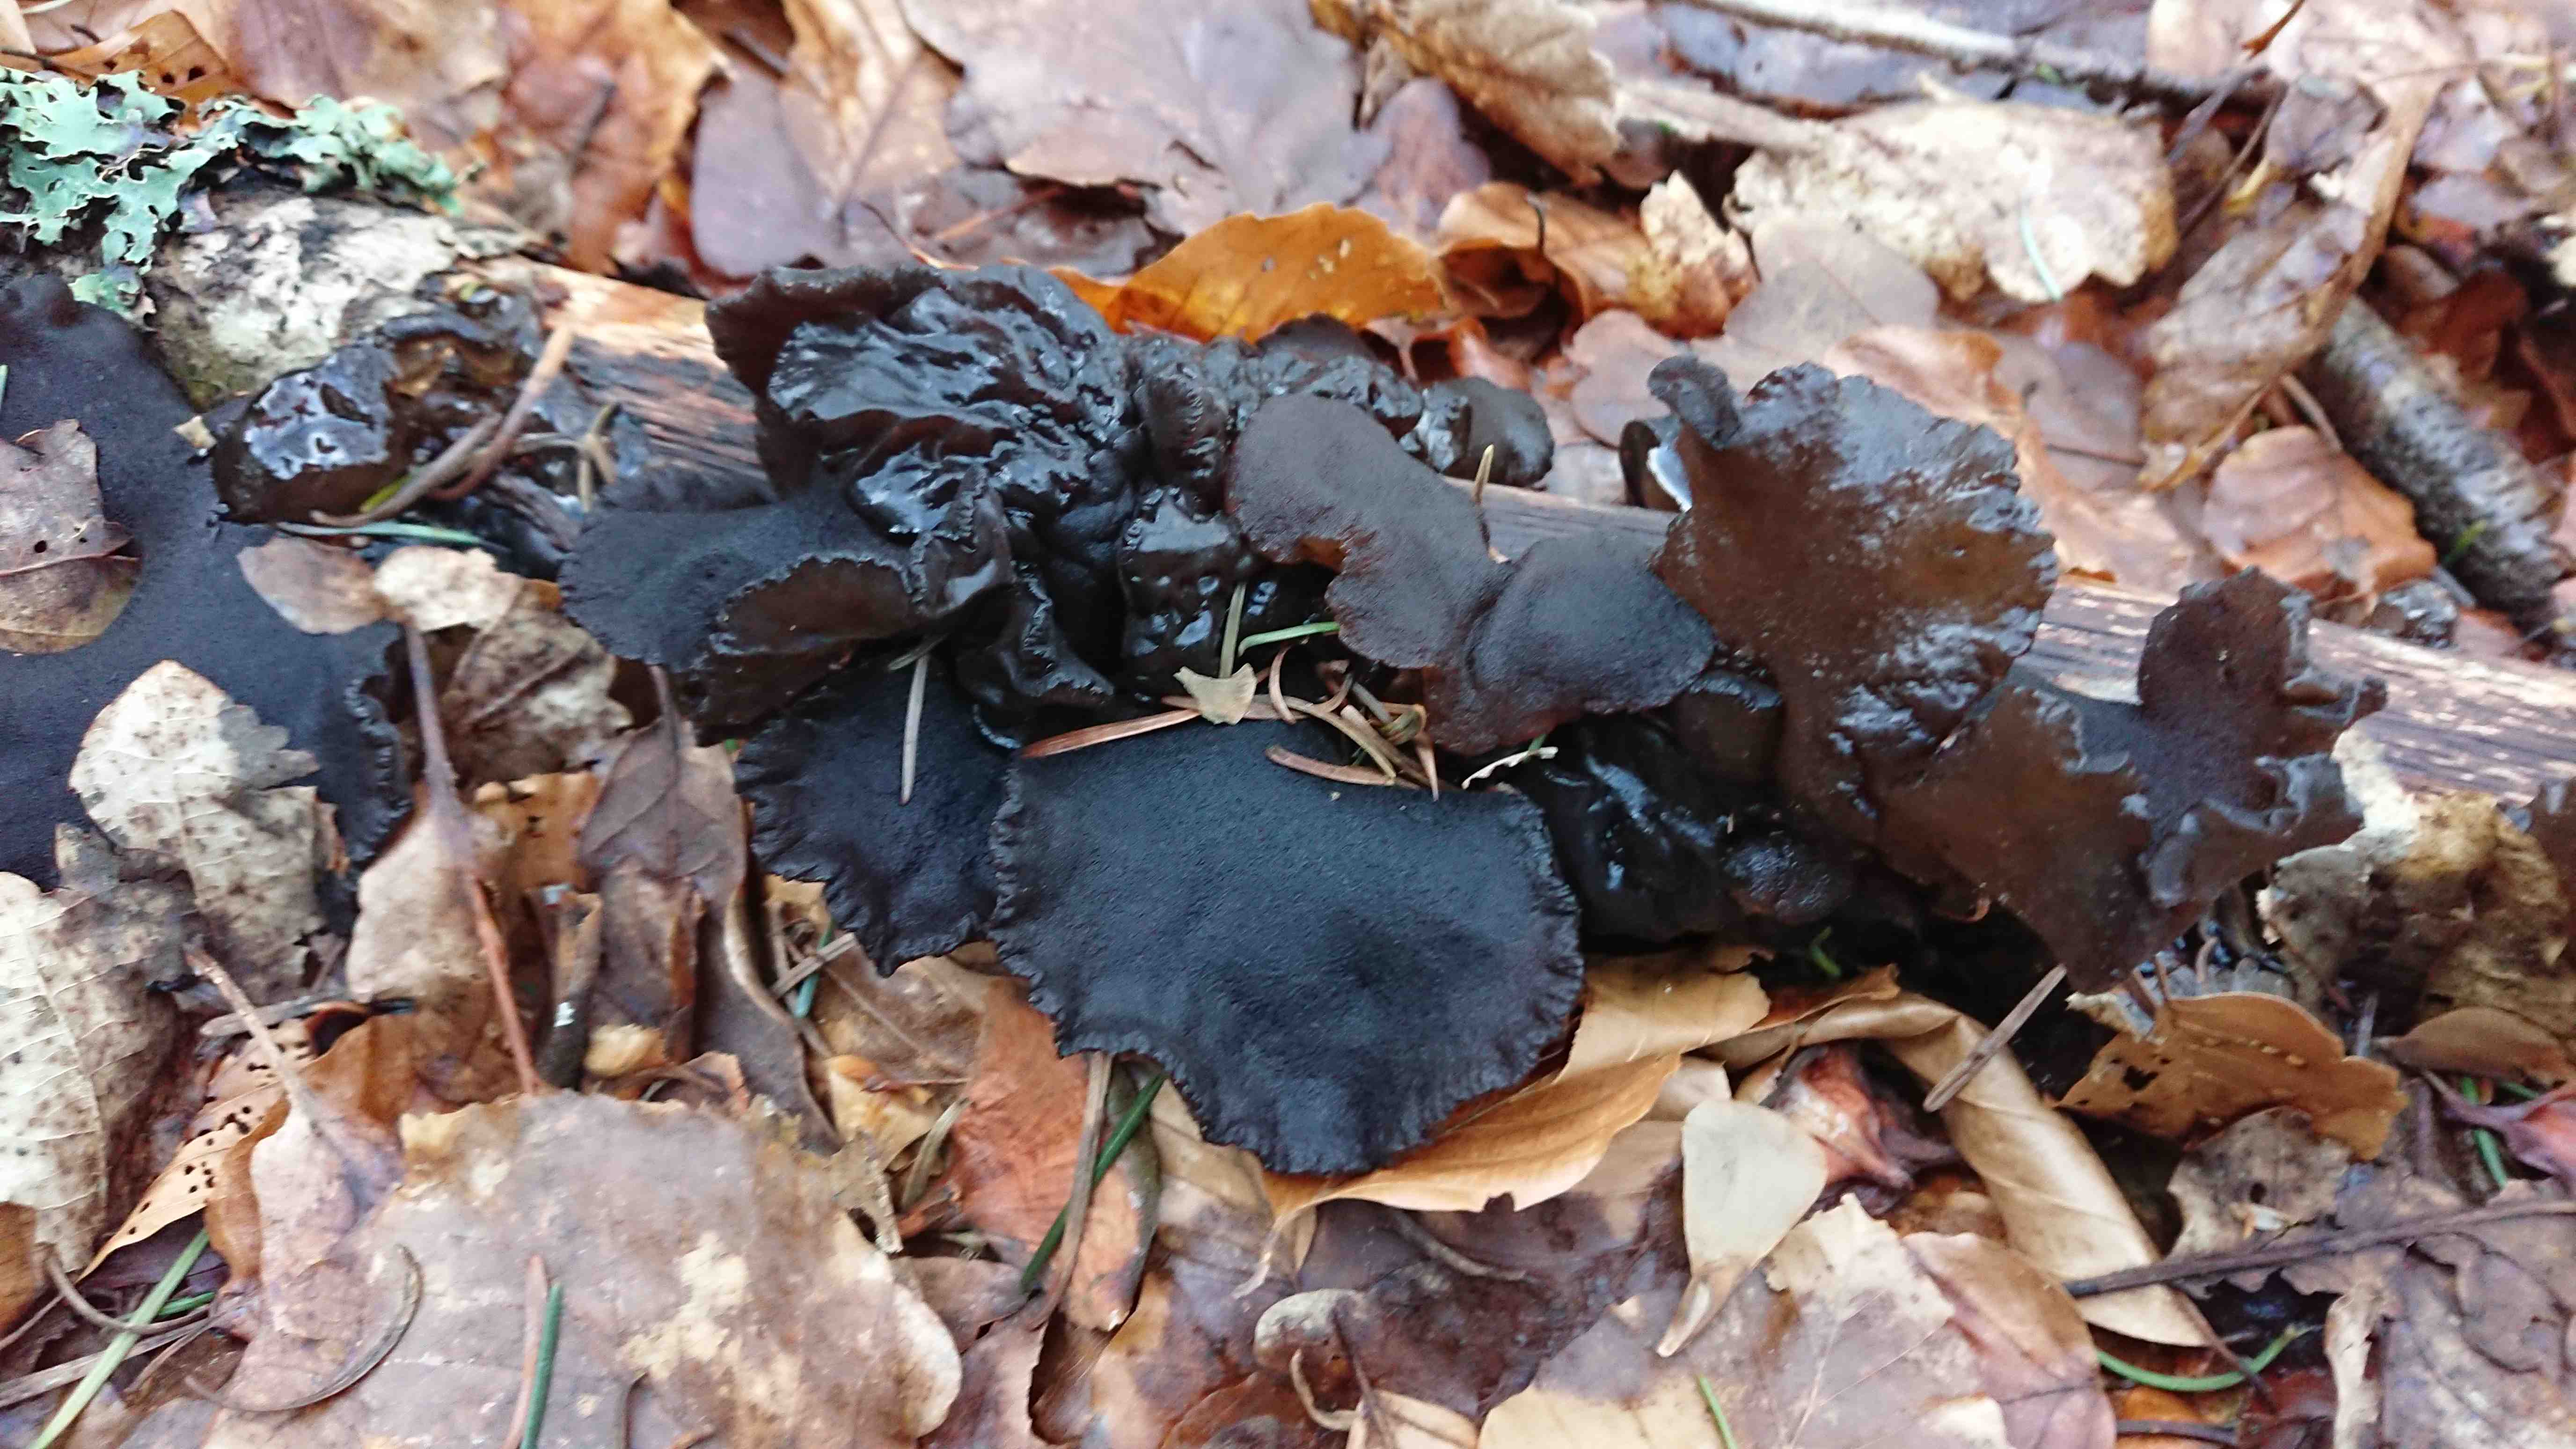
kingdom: Fungi
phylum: Basidiomycota
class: Agaricomycetes
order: Auriculariales
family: Auriculariaceae
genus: Exidia
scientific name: Exidia glandulosa
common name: ege-bævretop
